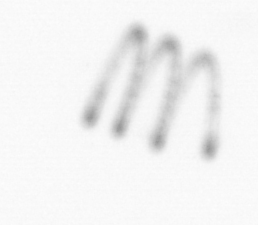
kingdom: Chromista
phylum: Ochrophyta
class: Bacillariophyceae
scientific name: Bacillariophyceae
